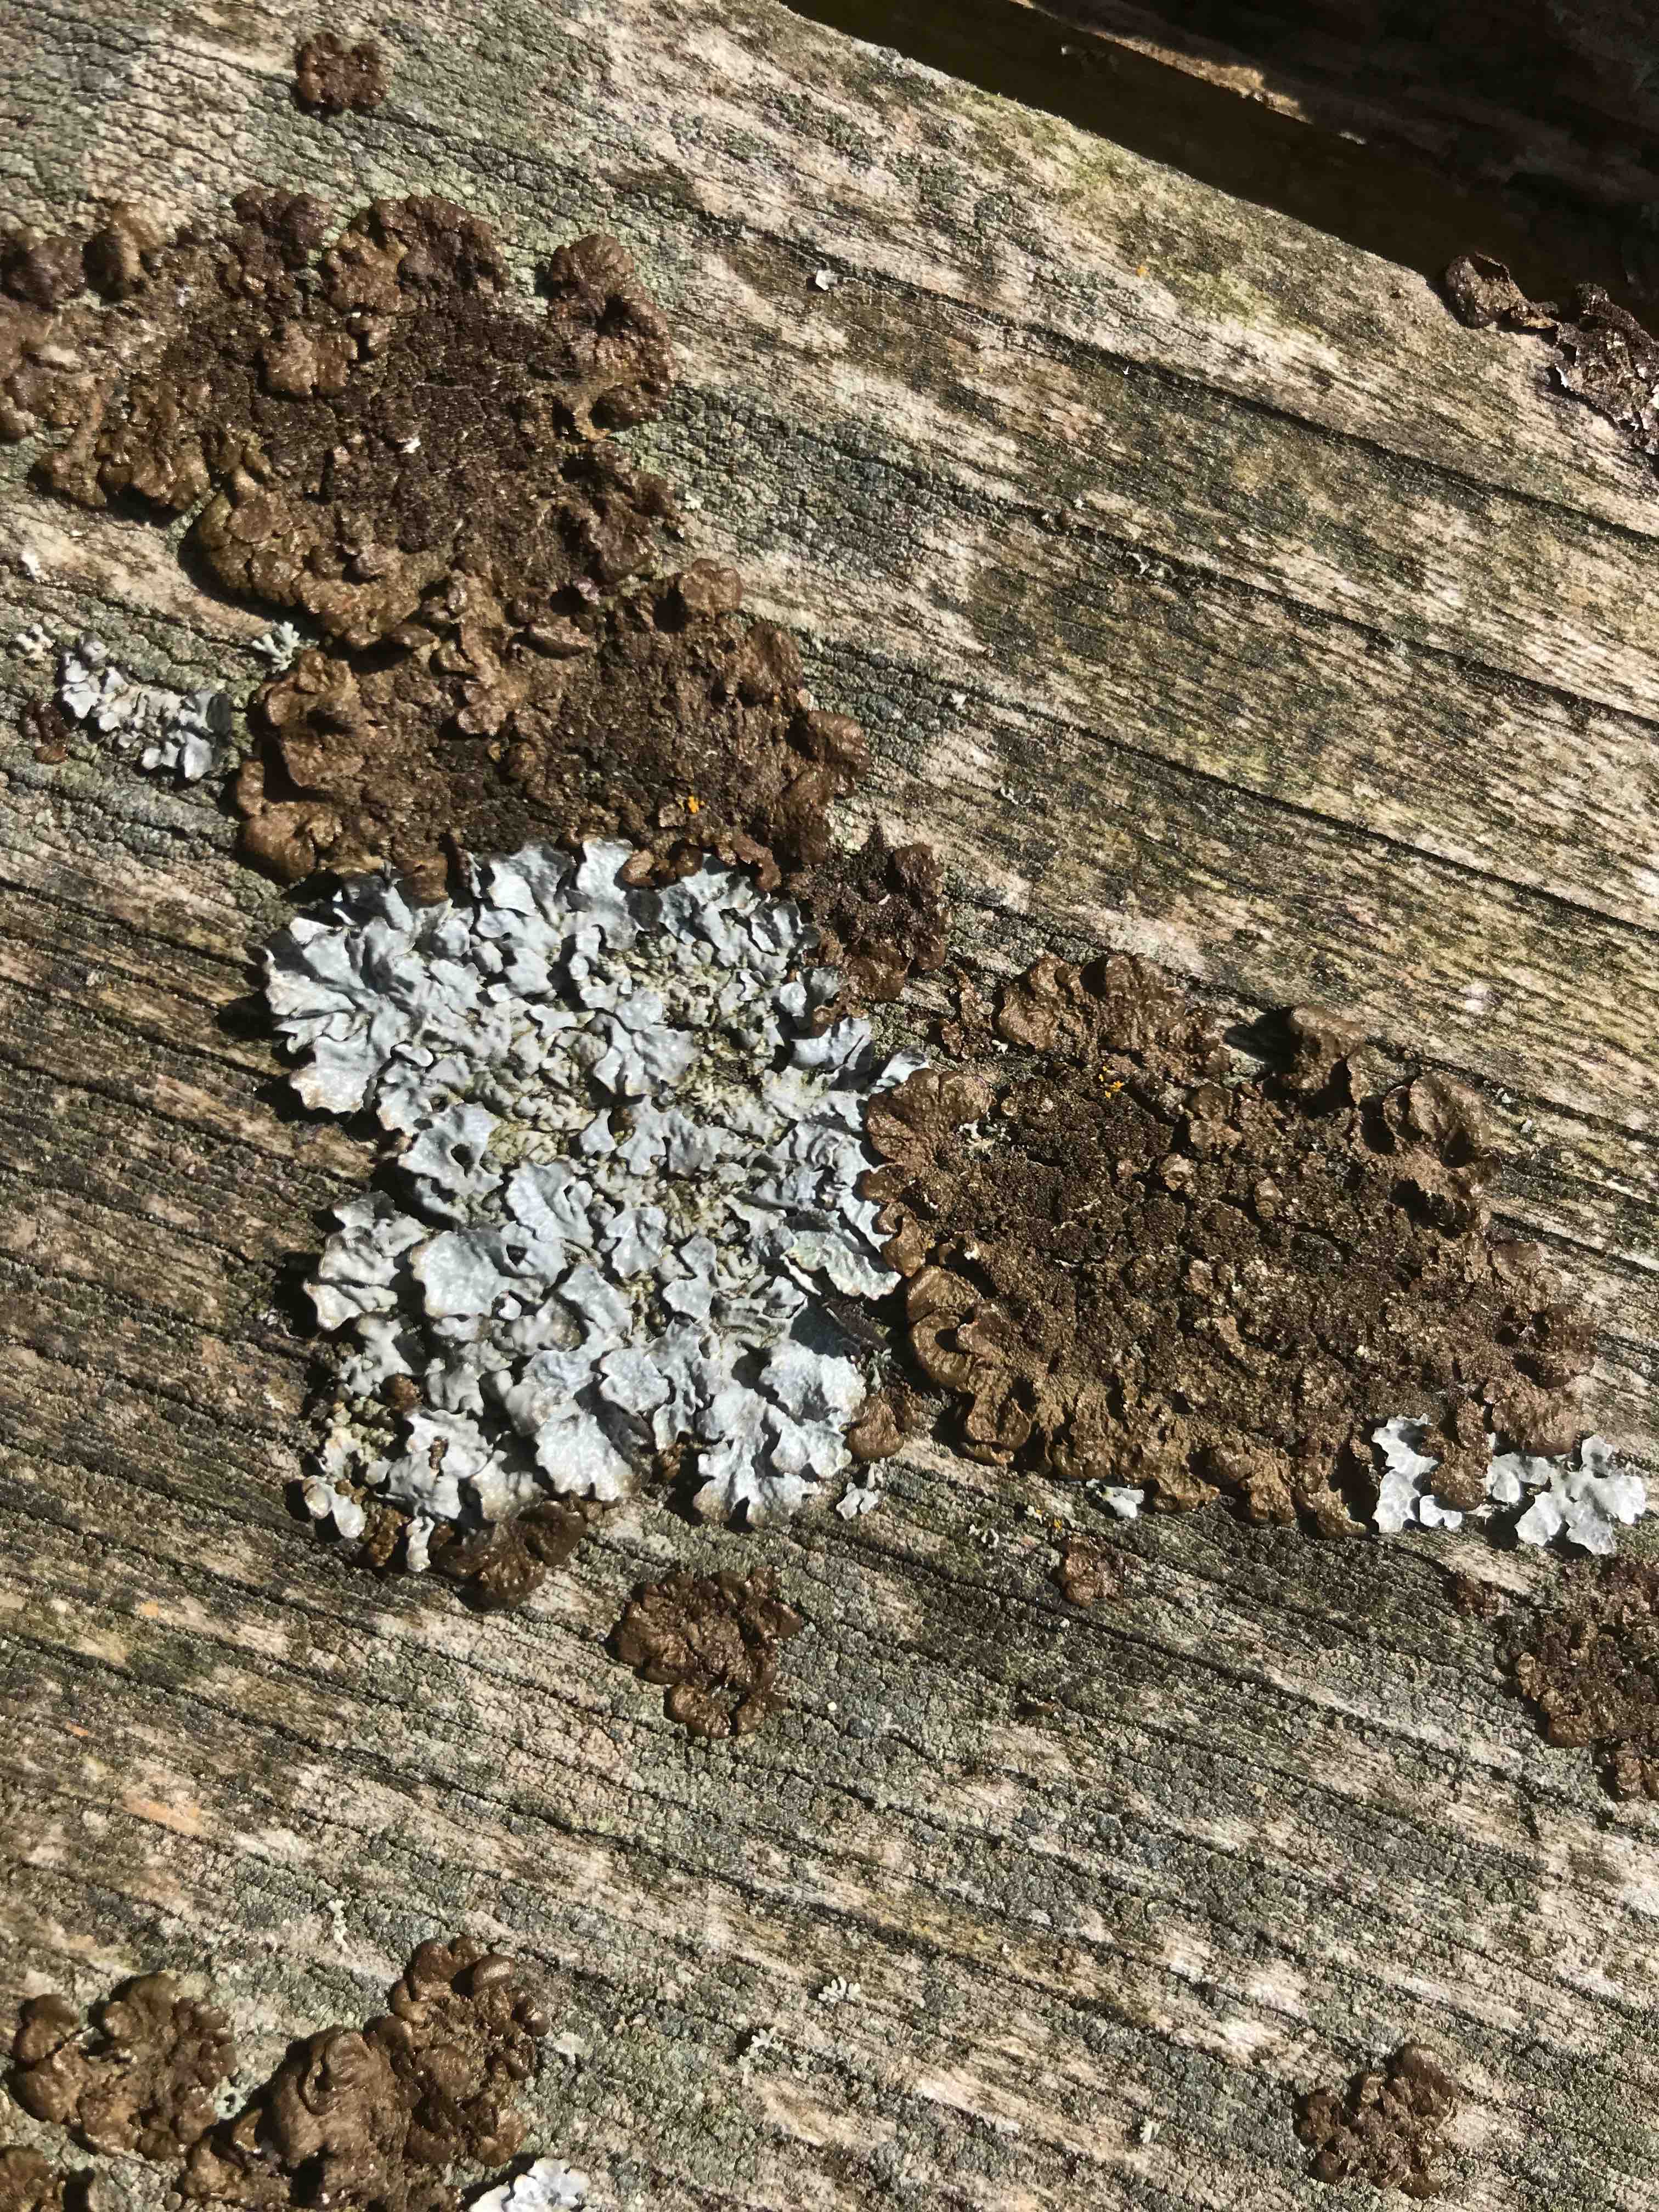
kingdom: Fungi
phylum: Ascomycota
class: Lecanoromycetes
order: Lecanorales
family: Parmeliaceae
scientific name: Parmeliaceae
